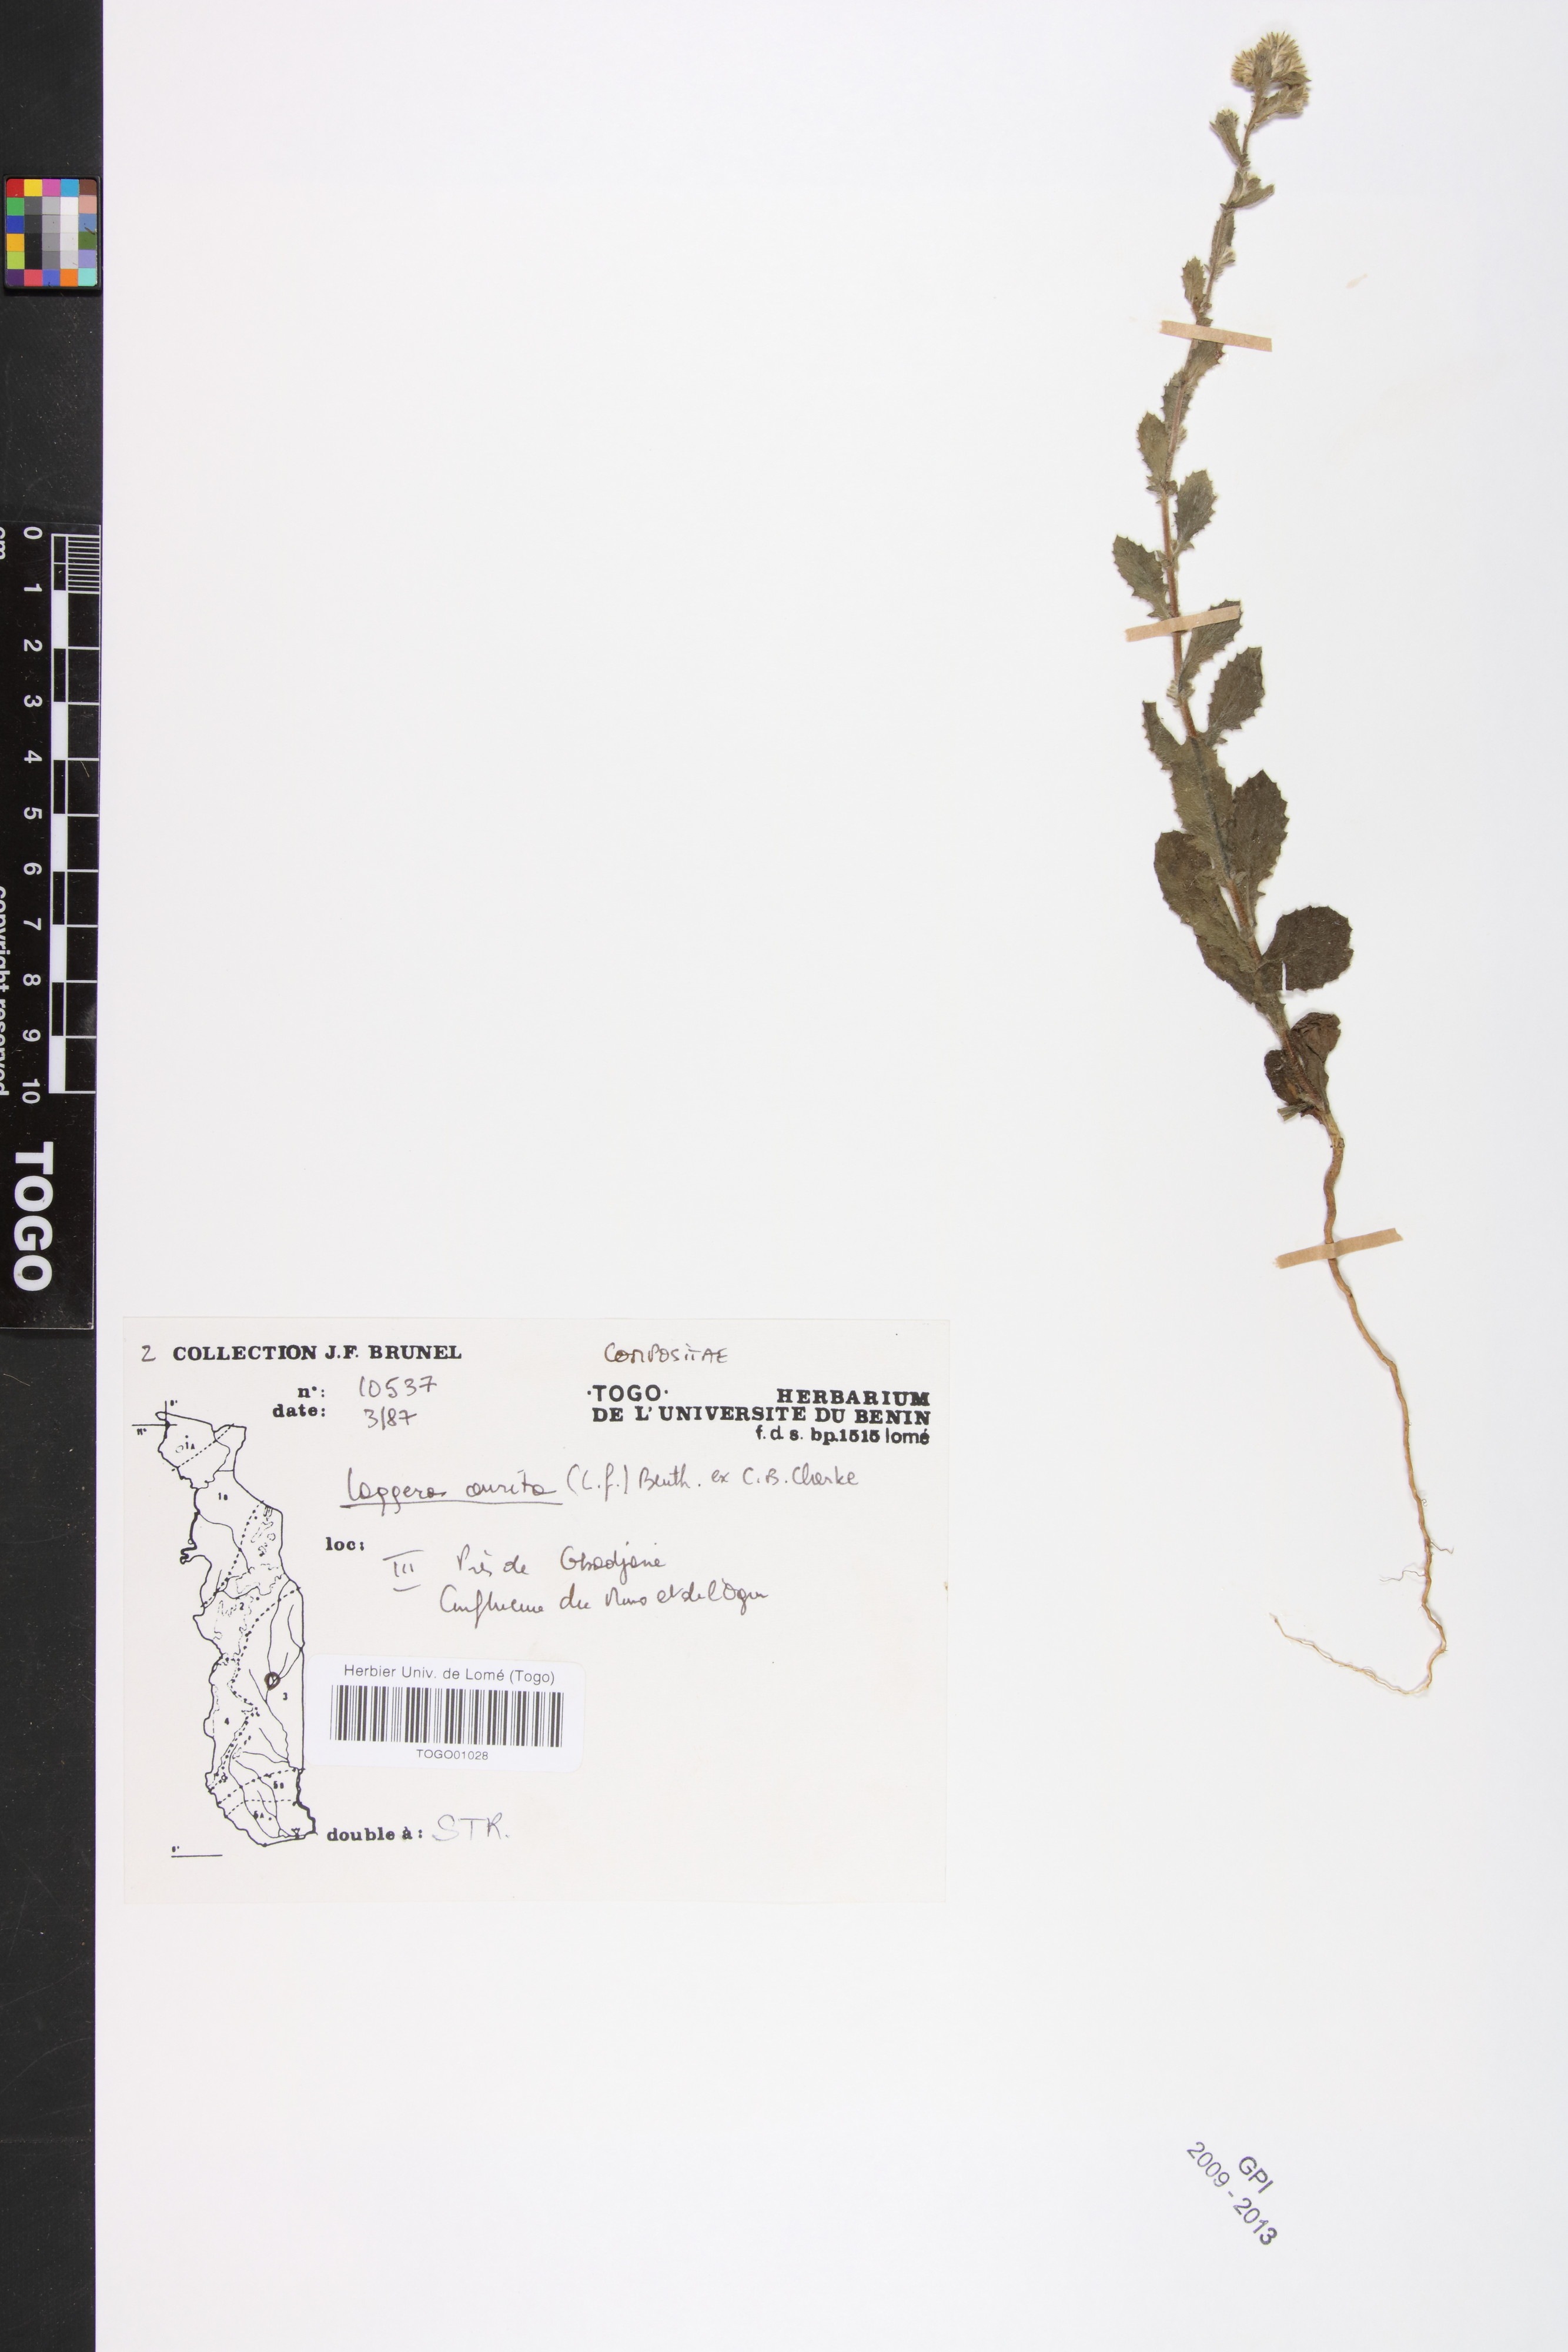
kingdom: Plantae
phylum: Tracheophyta
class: Magnoliopsida
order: Asterales
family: Asteraceae
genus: Pseudoconyza
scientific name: Pseudoconyza viscosa
